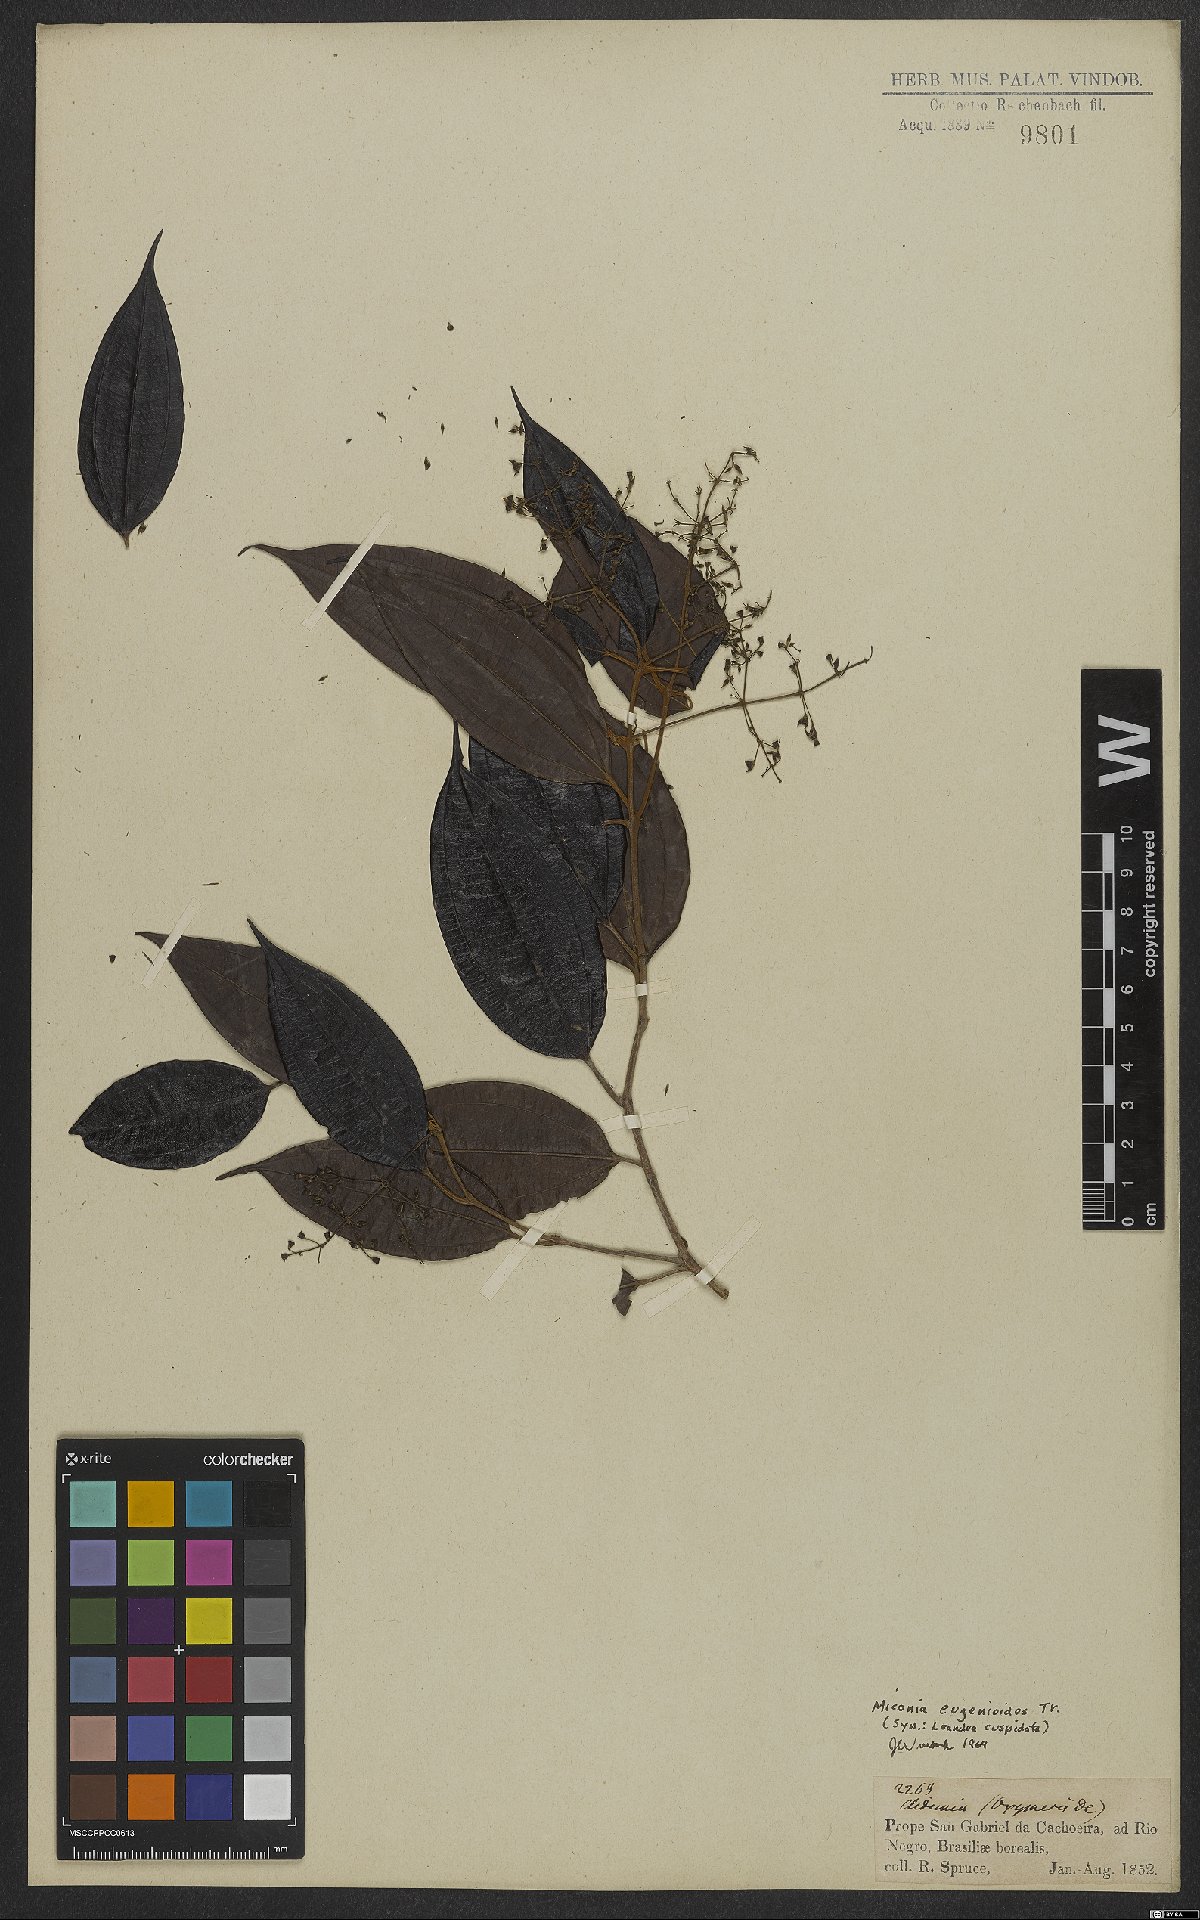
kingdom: Plantae
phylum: Tracheophyta
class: Magnoliopsida
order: Myrtales
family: Melastomataceae
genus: Miconia
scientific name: Miconia eugenioides
